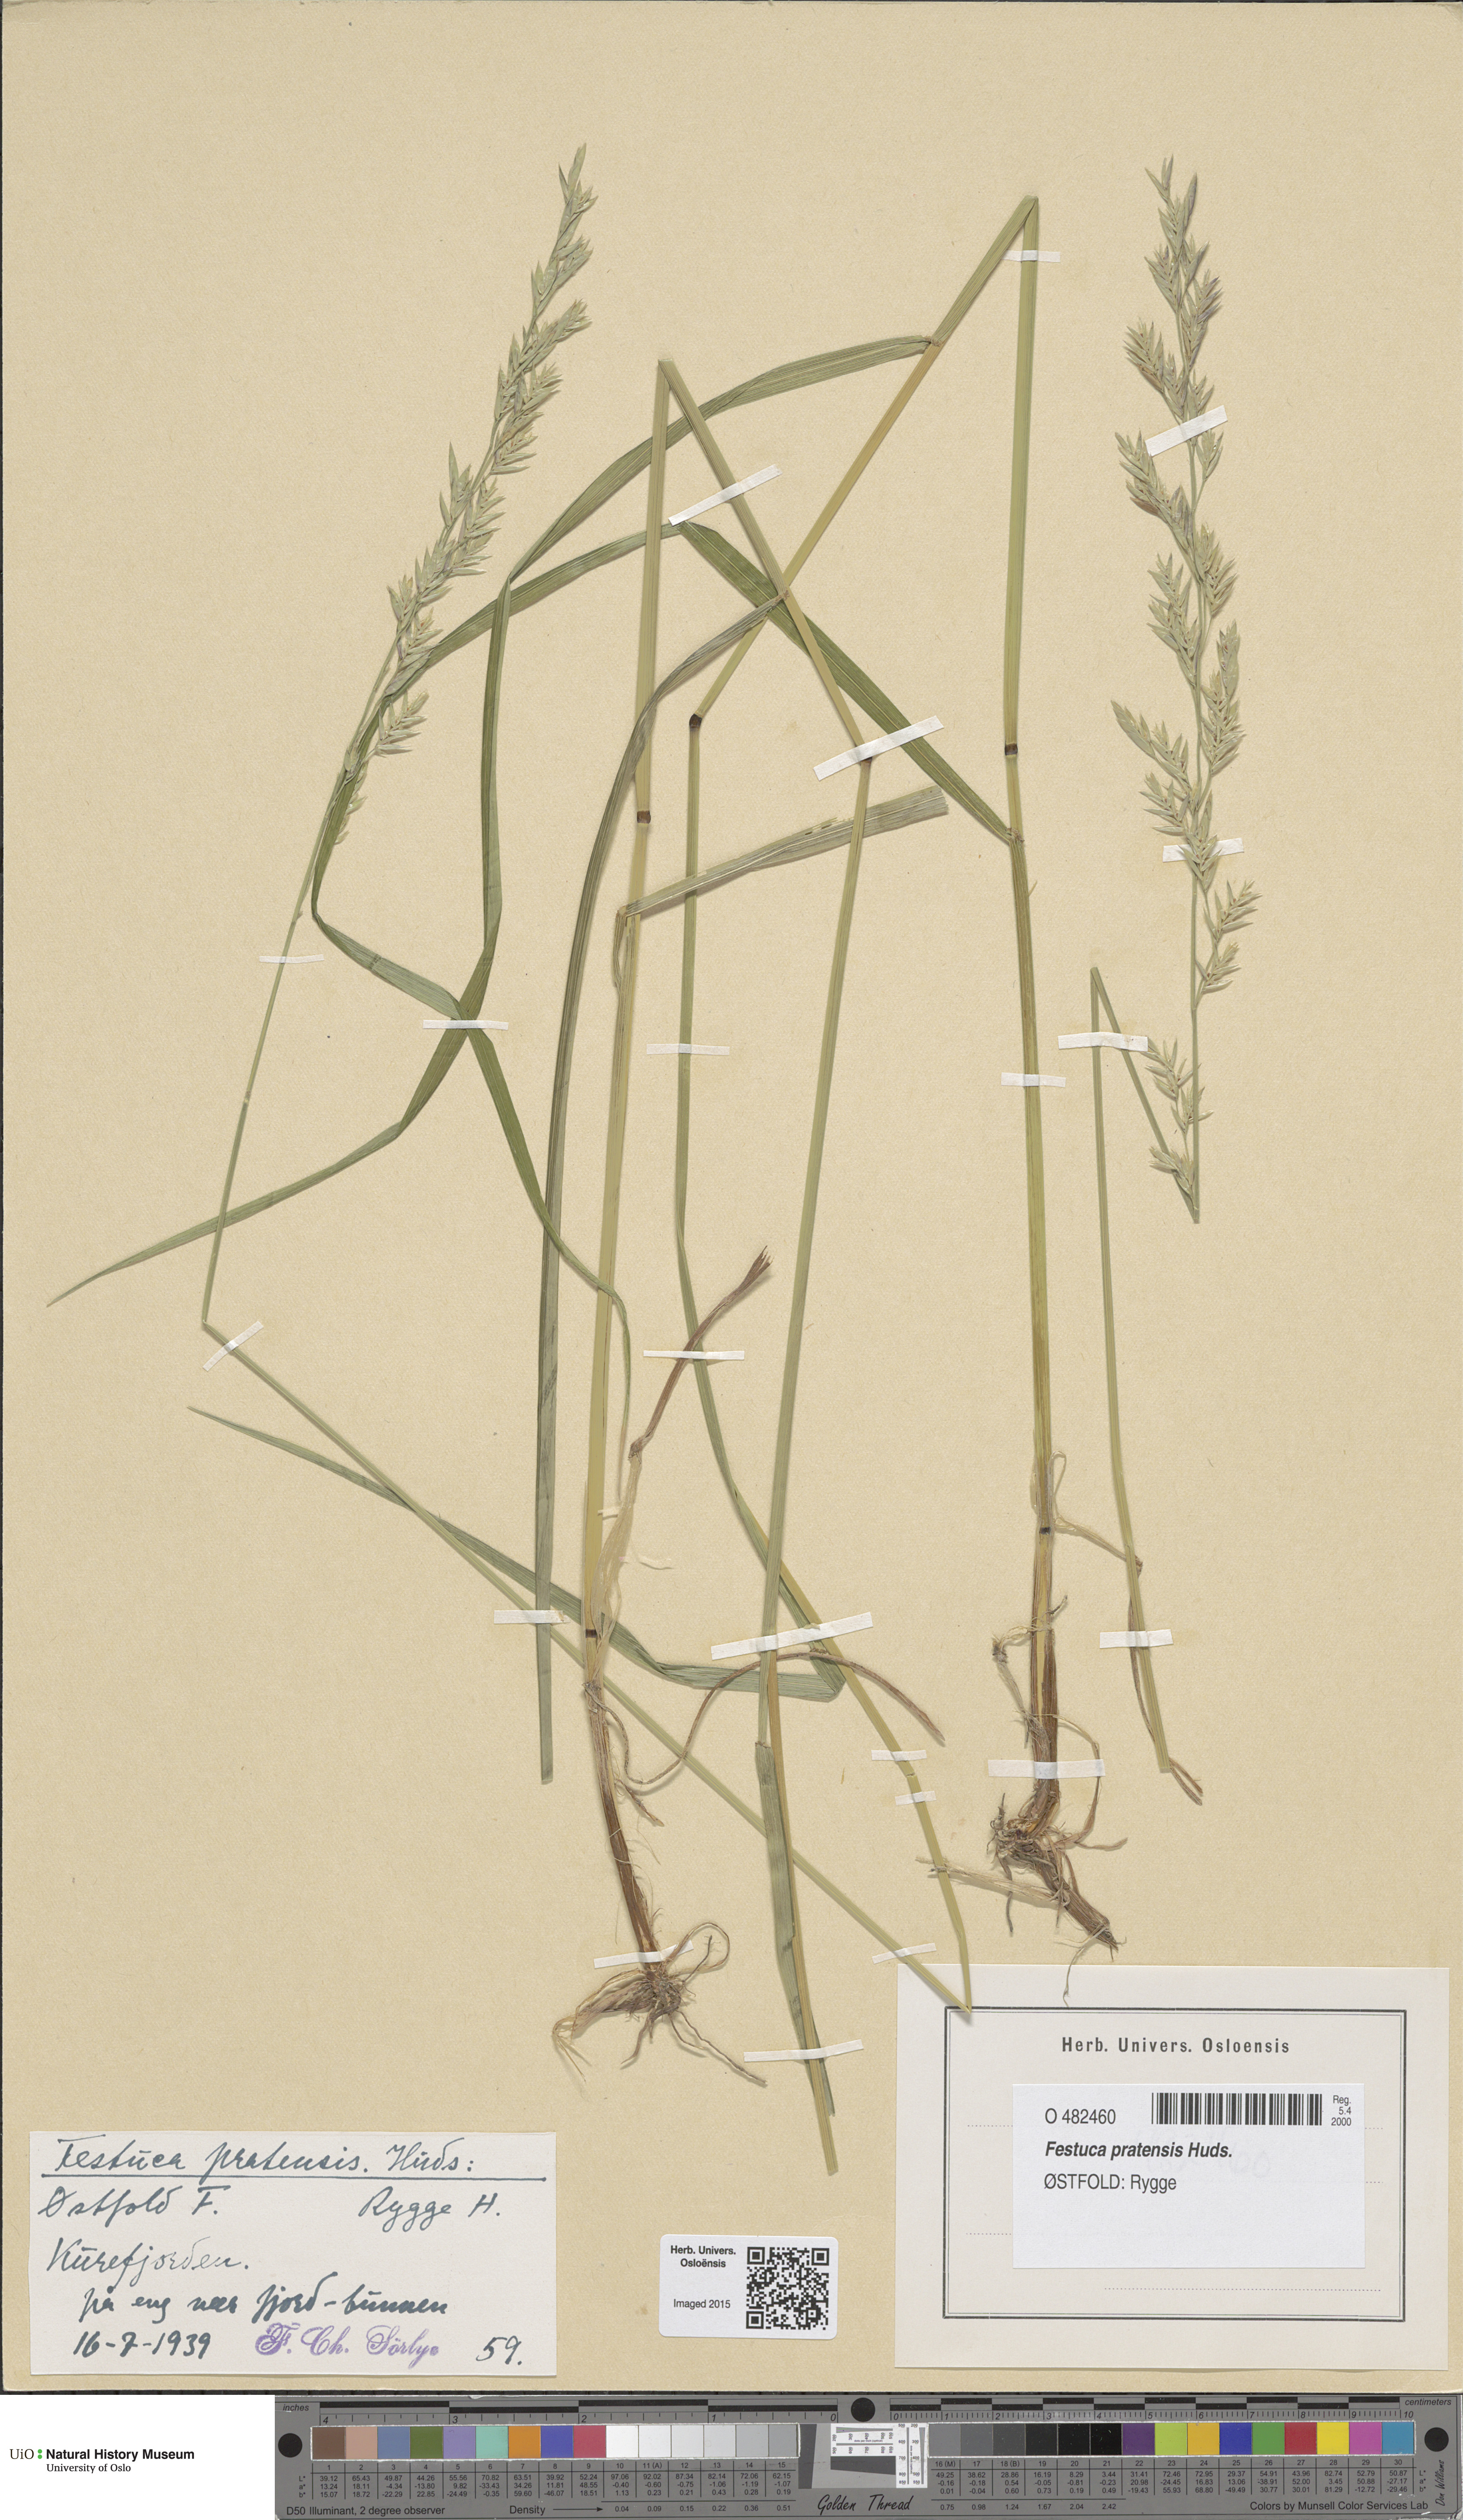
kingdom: Plantae
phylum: Tracheophyta
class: Liliopsida
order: Poales
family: Poaceae
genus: Lolium
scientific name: Lolium pratense
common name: Dover grass
